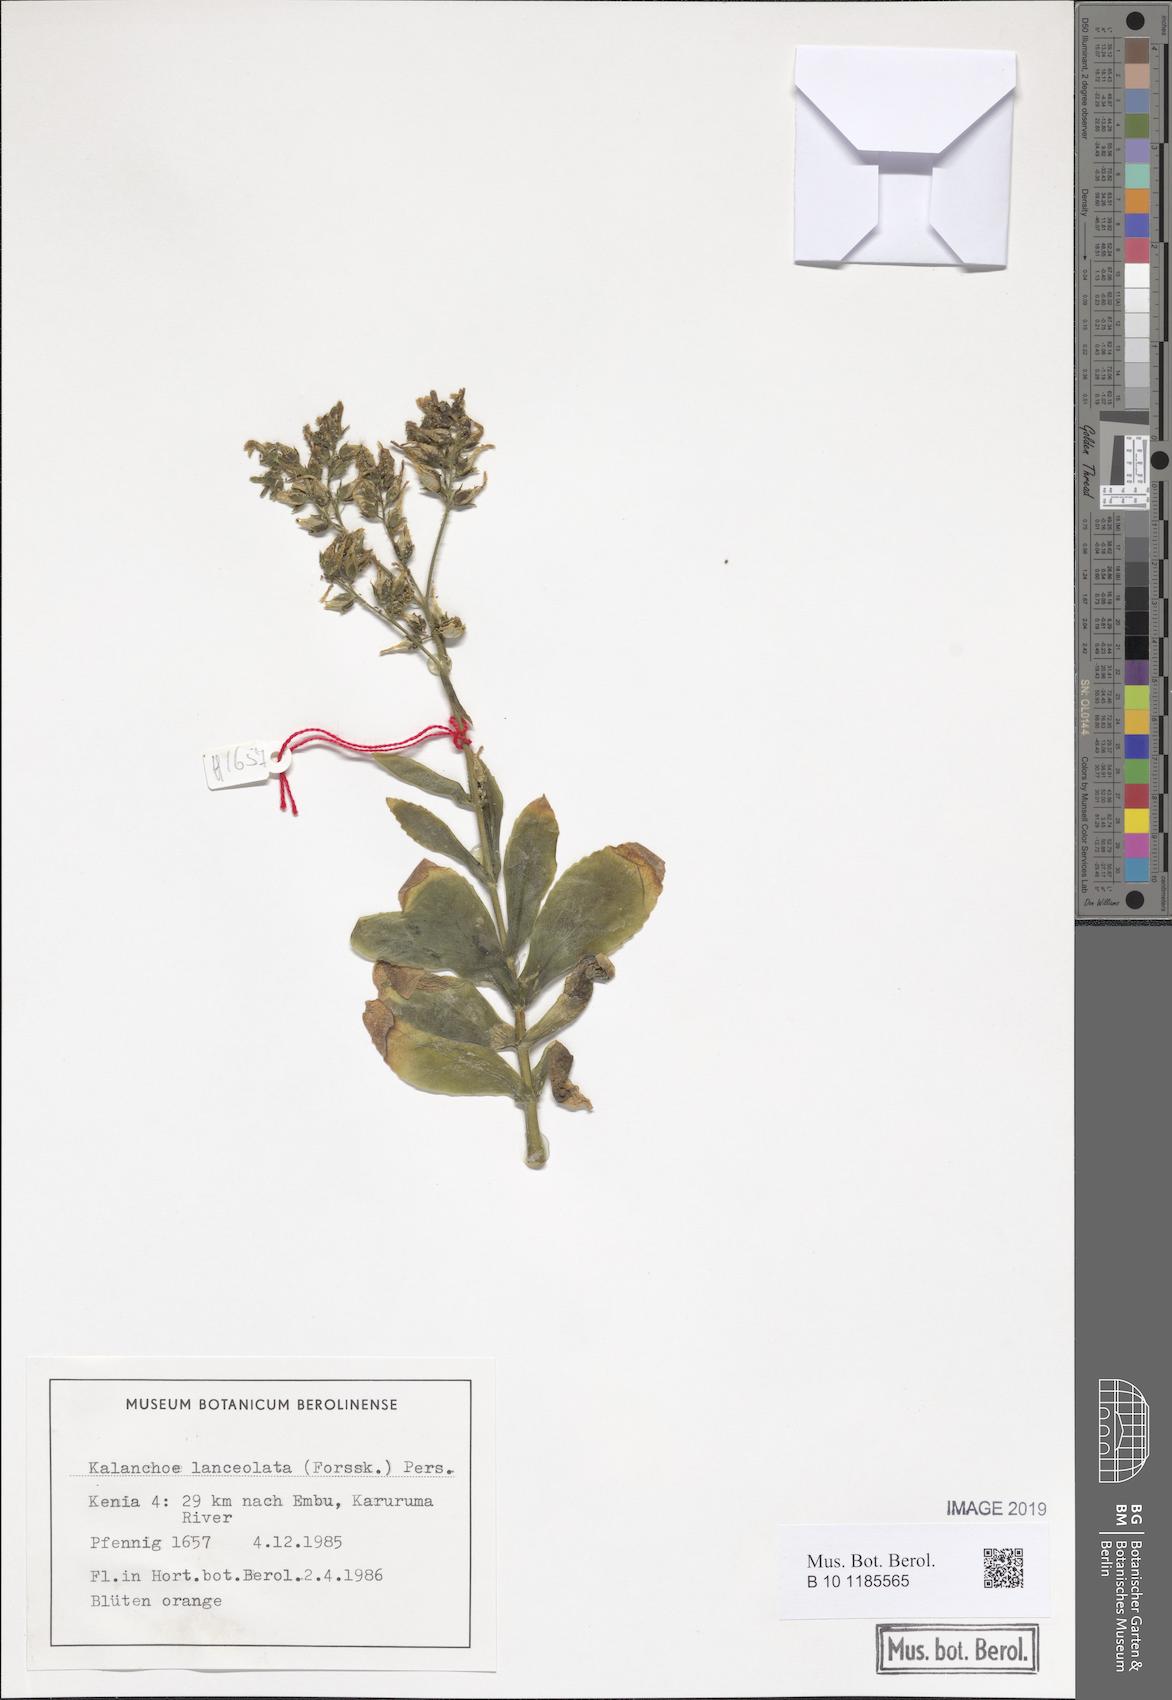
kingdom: Plantae
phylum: Tracheophyta
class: Magnoliopsida
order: Saxifragales
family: Crassulaceae
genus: Kalanchoe
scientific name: Kalanchoe lanceolata
